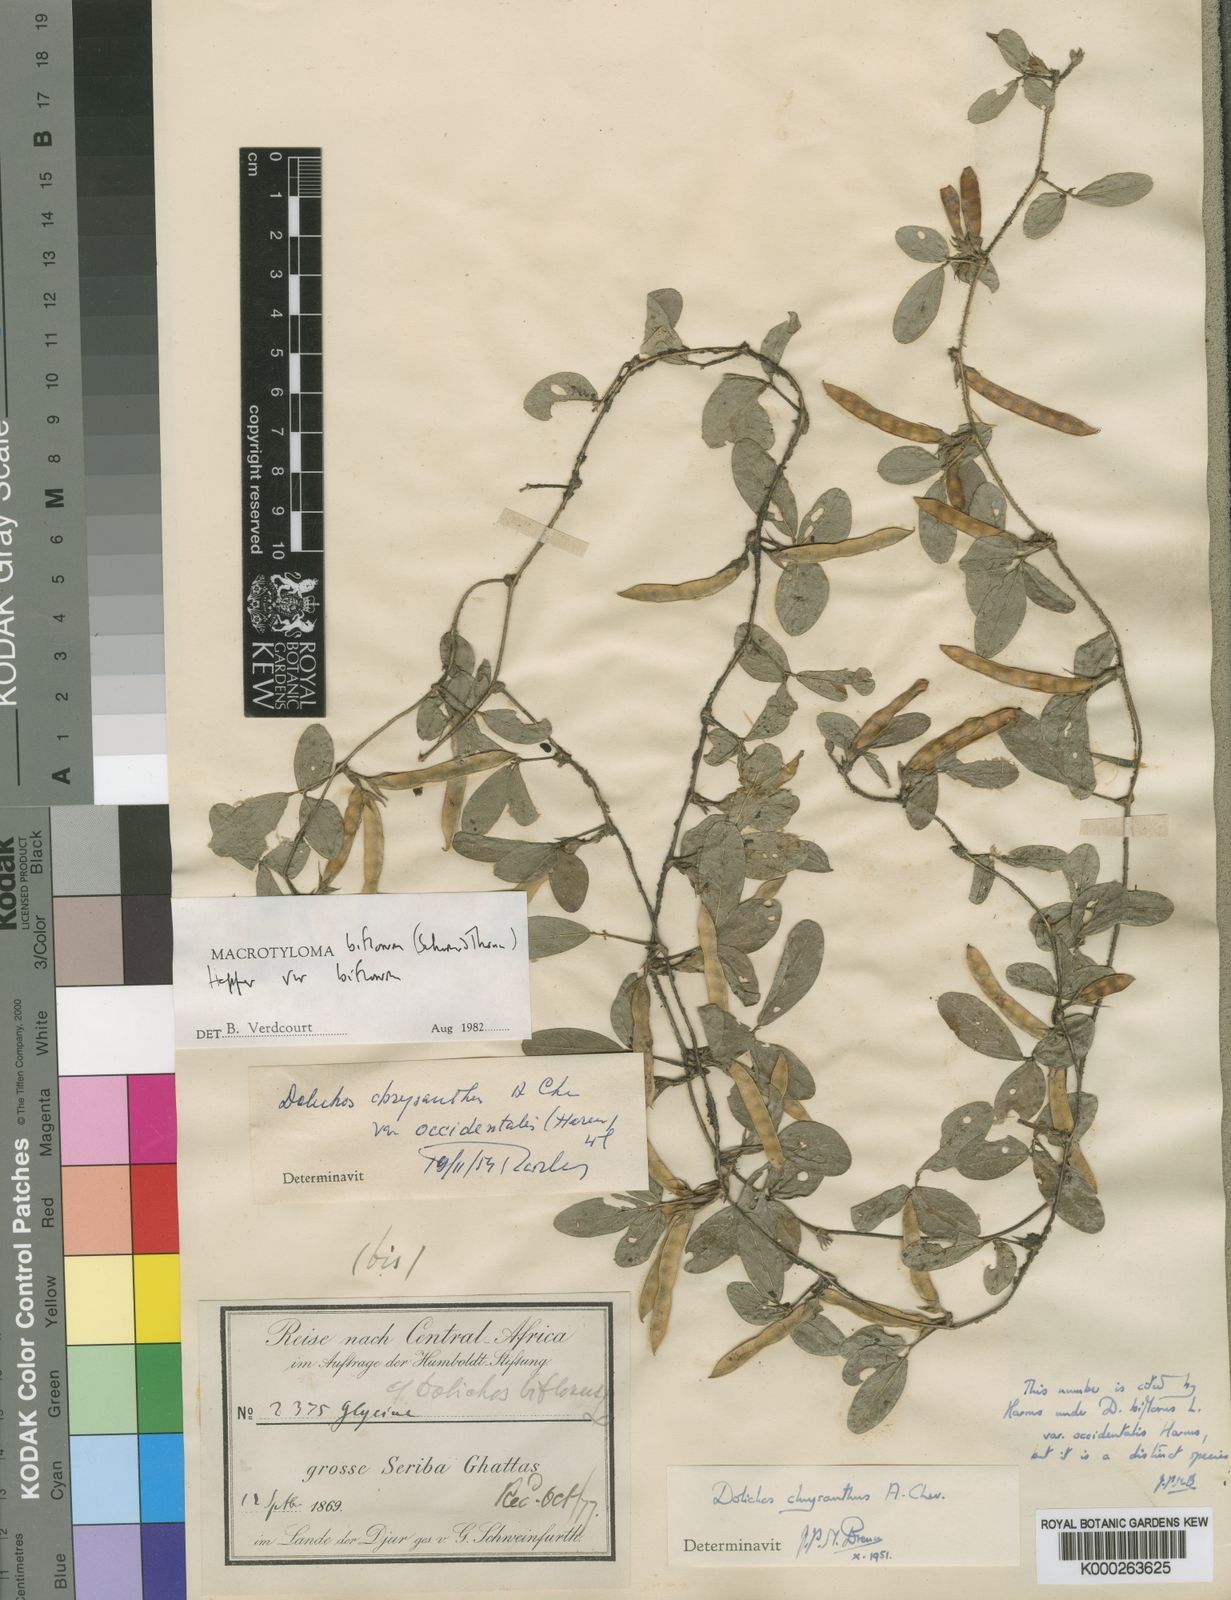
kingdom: Plantae
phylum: Tracheophyta
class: Magnoliopsida
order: Fabales
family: Fabaceae
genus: Macrotyloma
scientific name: Macrotyloma biflorum
